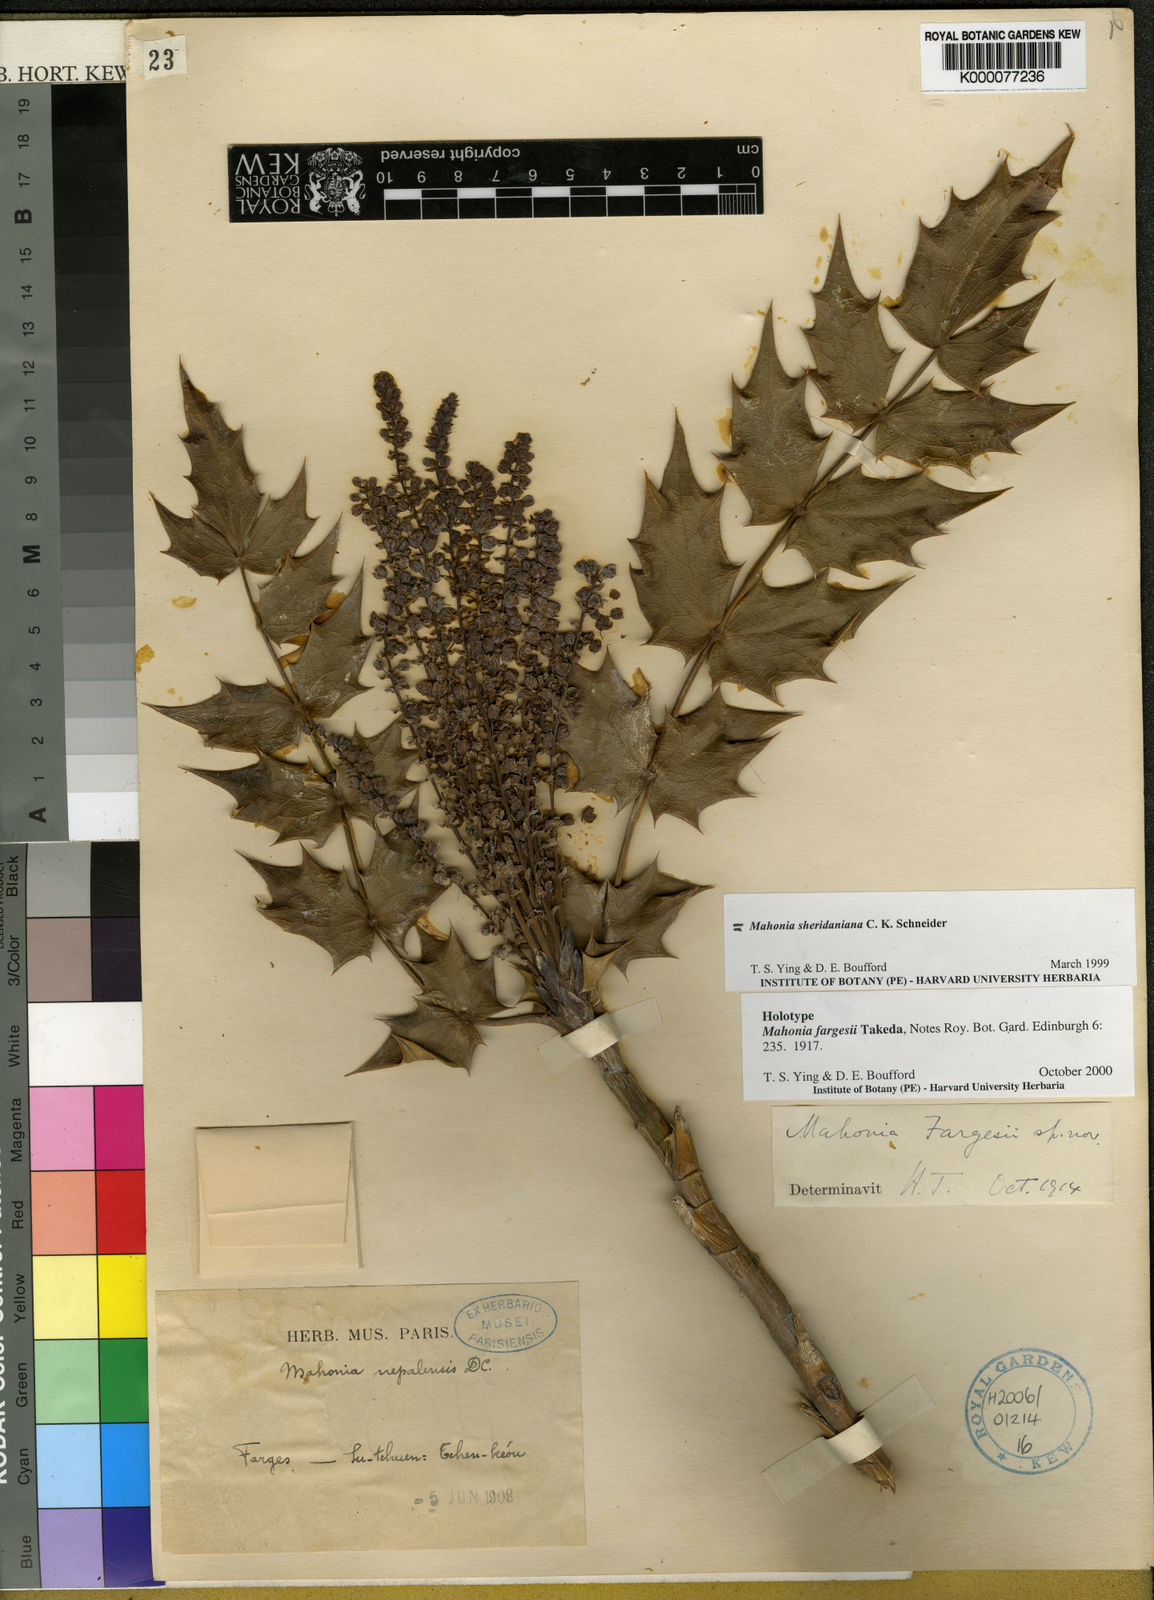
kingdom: Plantae
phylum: Tracheophyta
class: Magnoliopsida
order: Ranunculales
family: Berberidaceae
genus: Mahonia
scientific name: Mahonia sheridaniana
